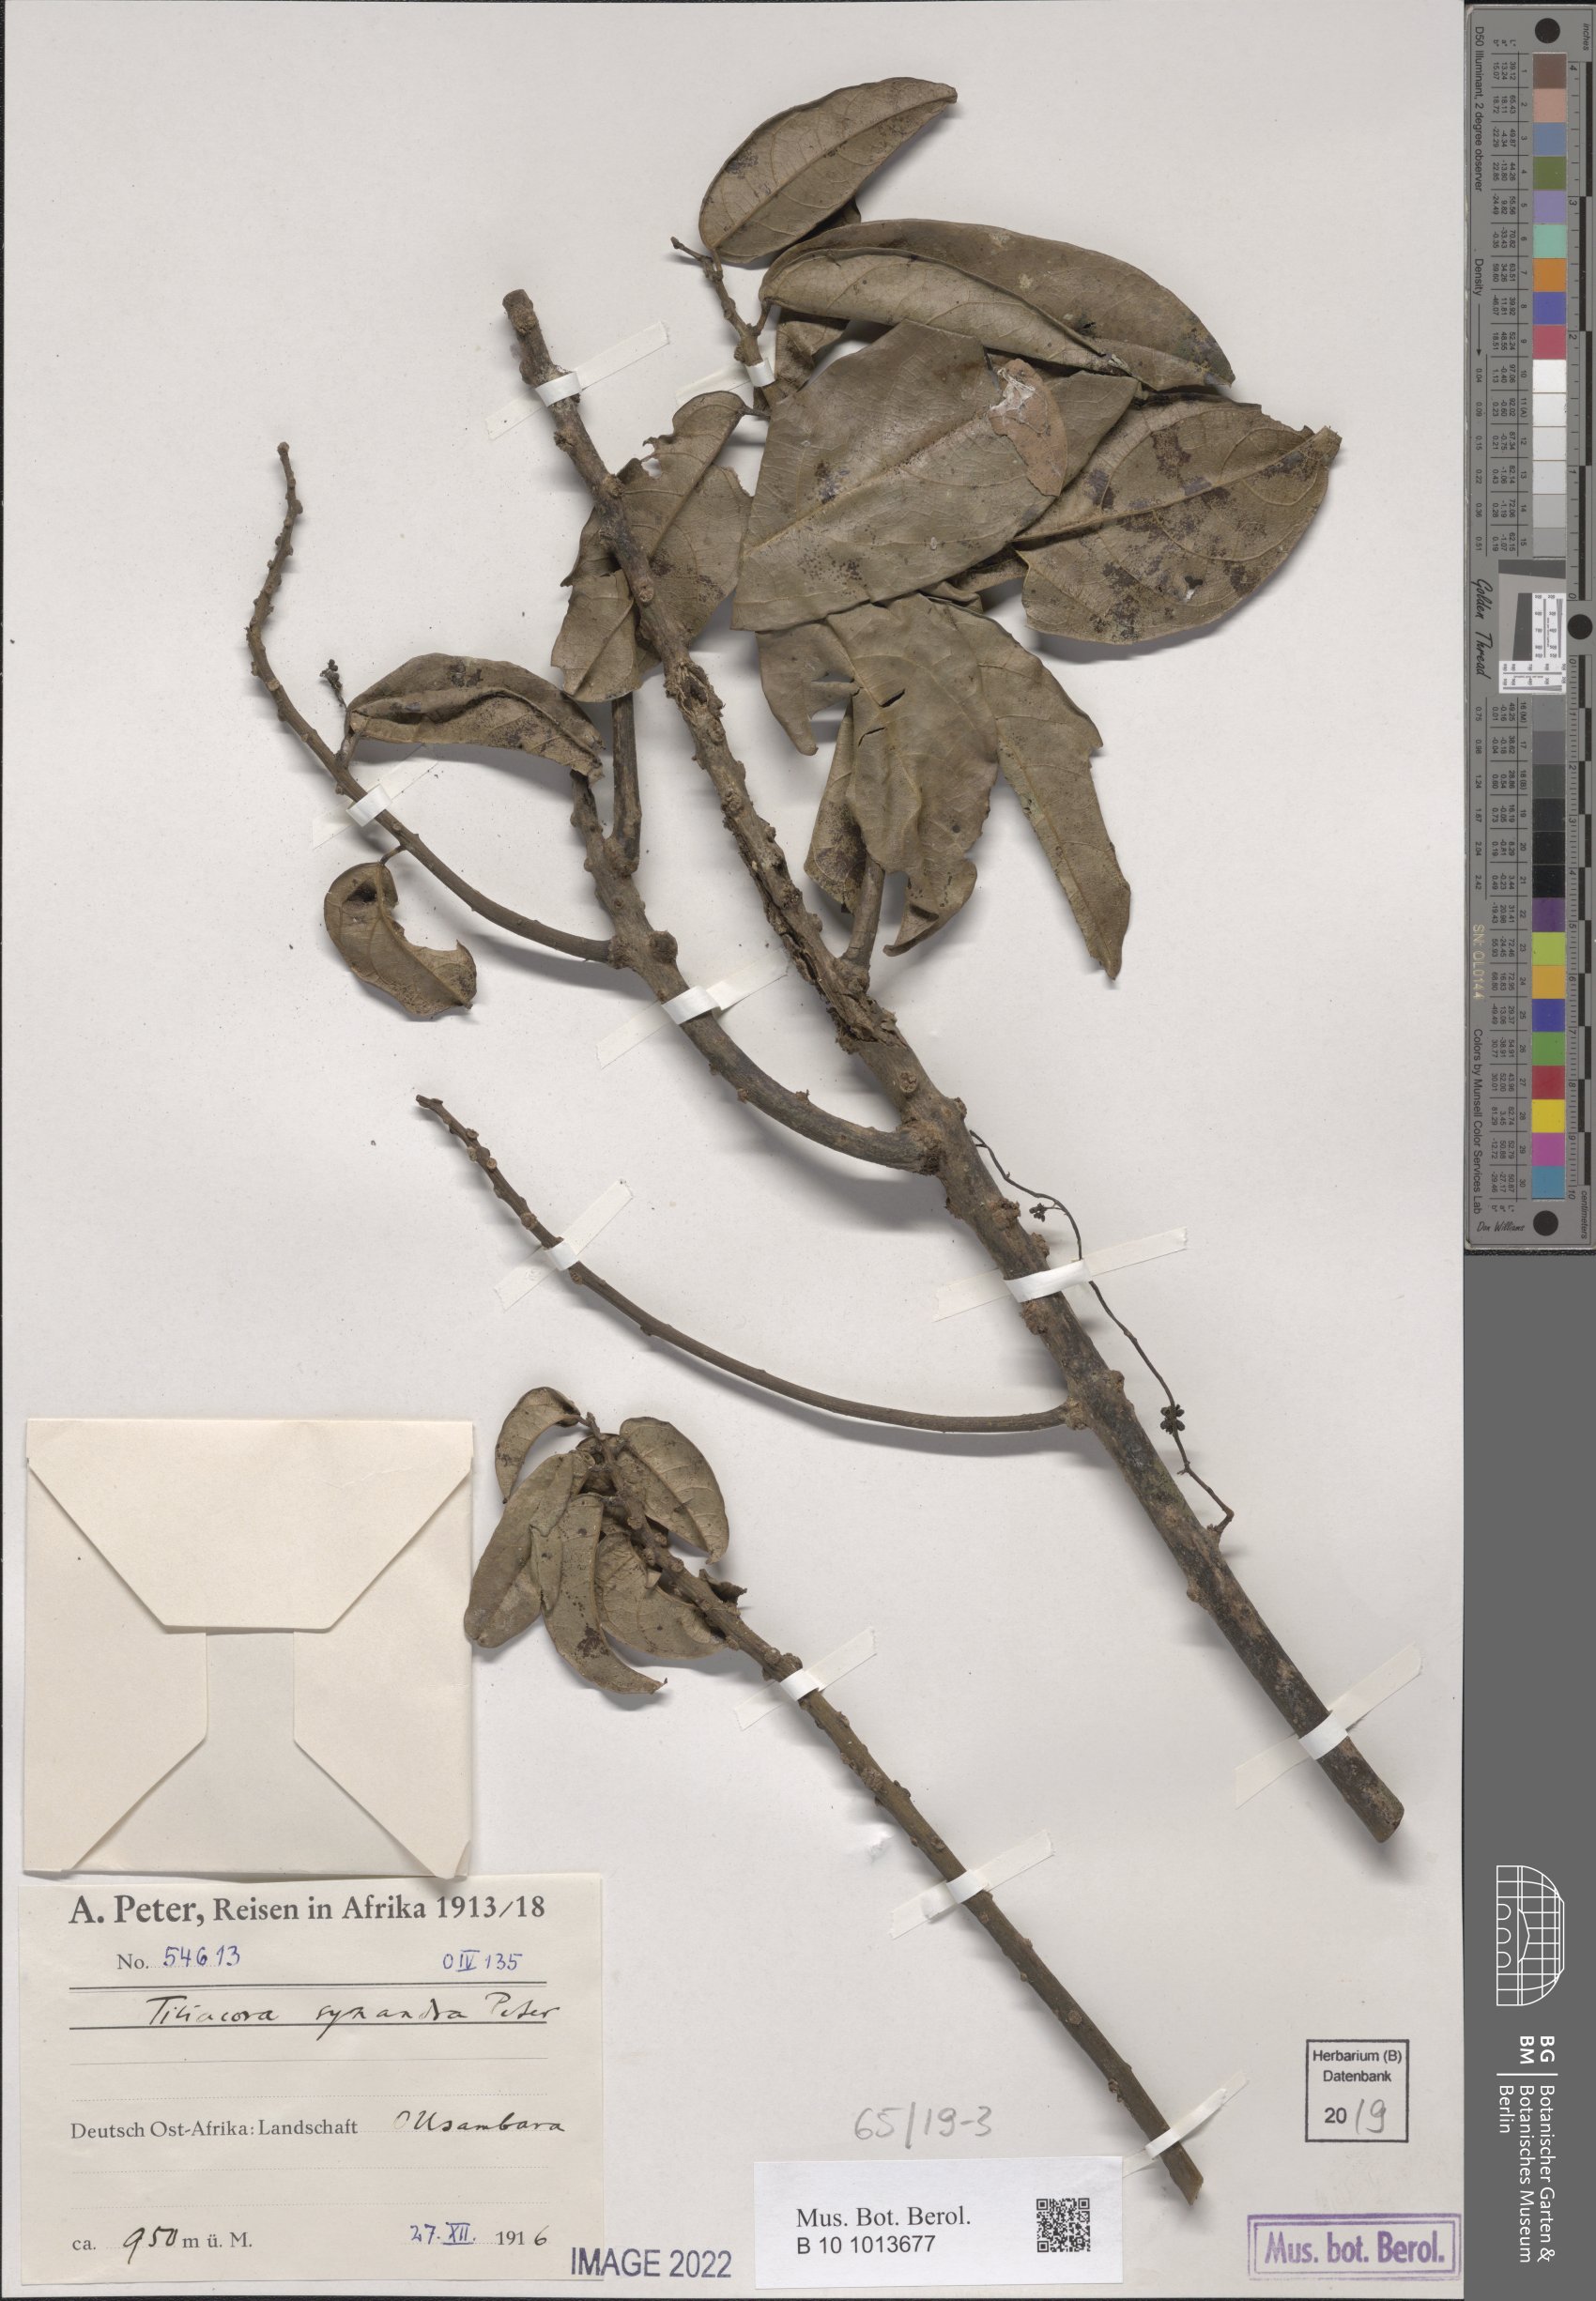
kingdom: Plantae
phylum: Tracheophyta
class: Magnoliopsida
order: Ranunculales
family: Menispermaceae
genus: Tiliacora
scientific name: Tiliacora
